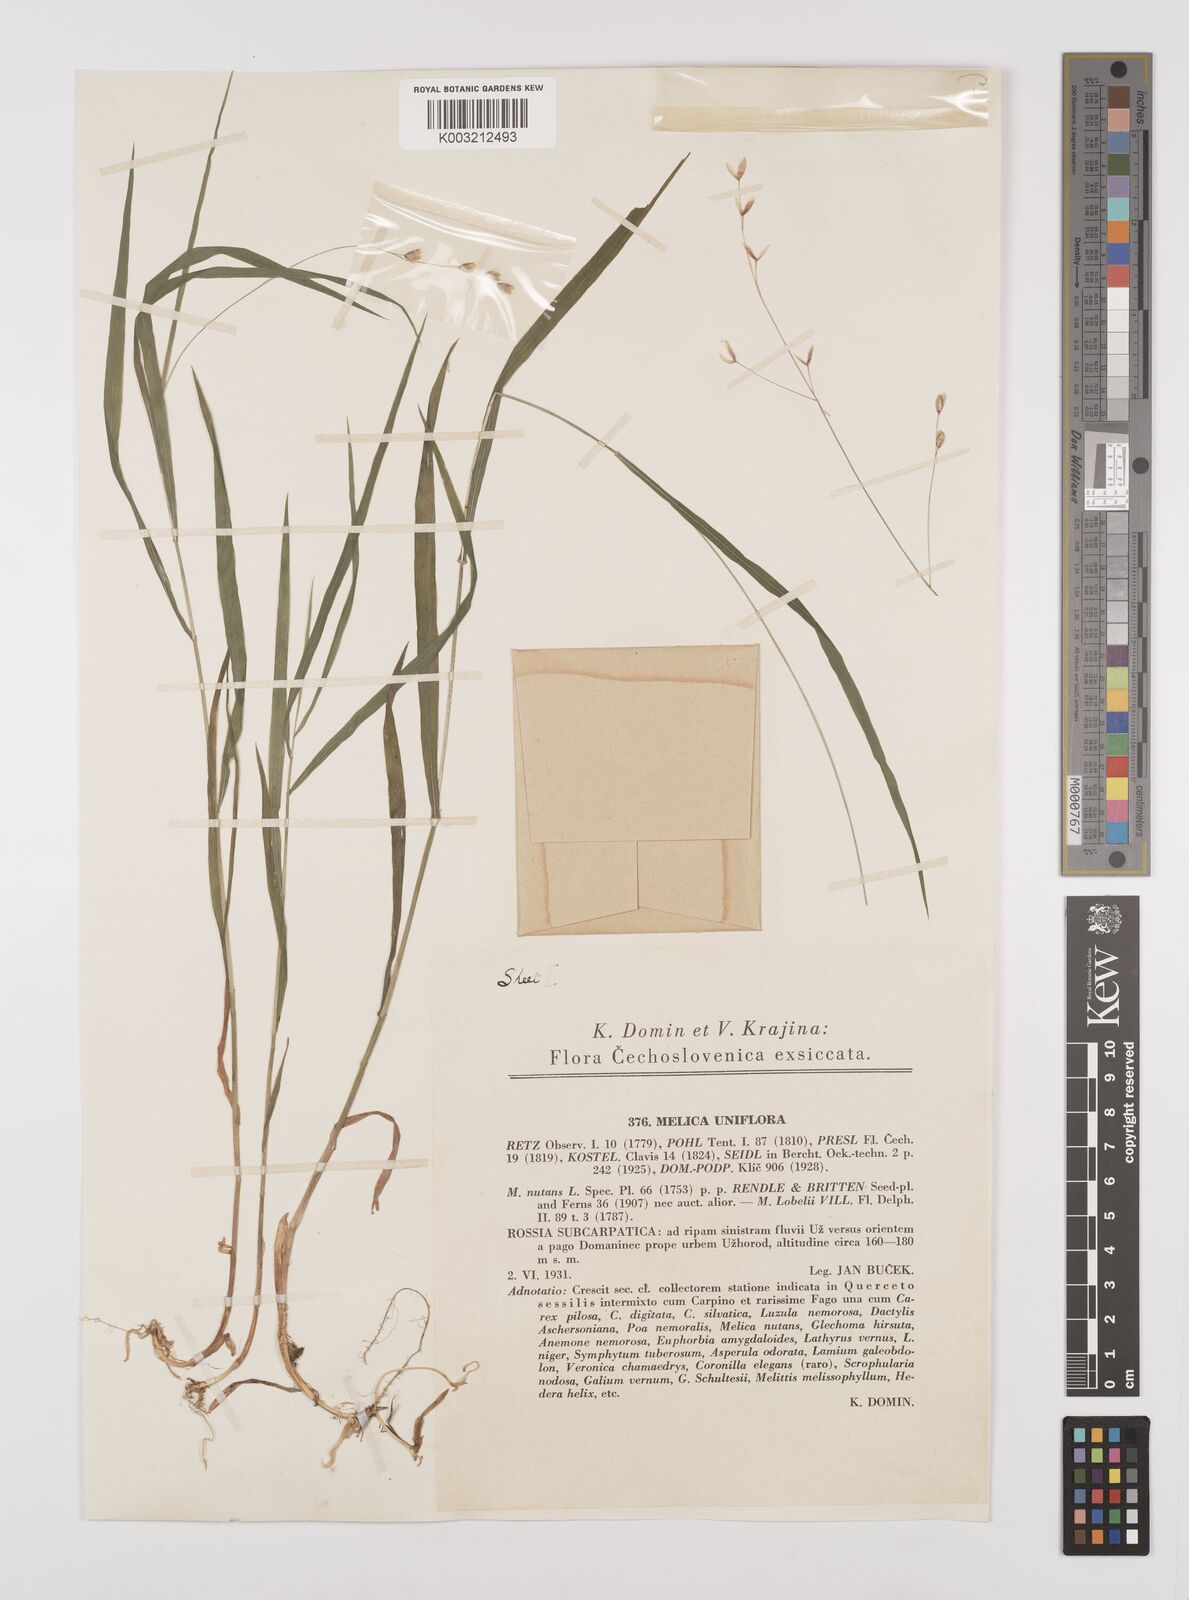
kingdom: Plantae
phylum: Tracheophyta
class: Liliopsida
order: Poales
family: Poaceae
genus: Melica
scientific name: Melica uniflora
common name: Wood melick
